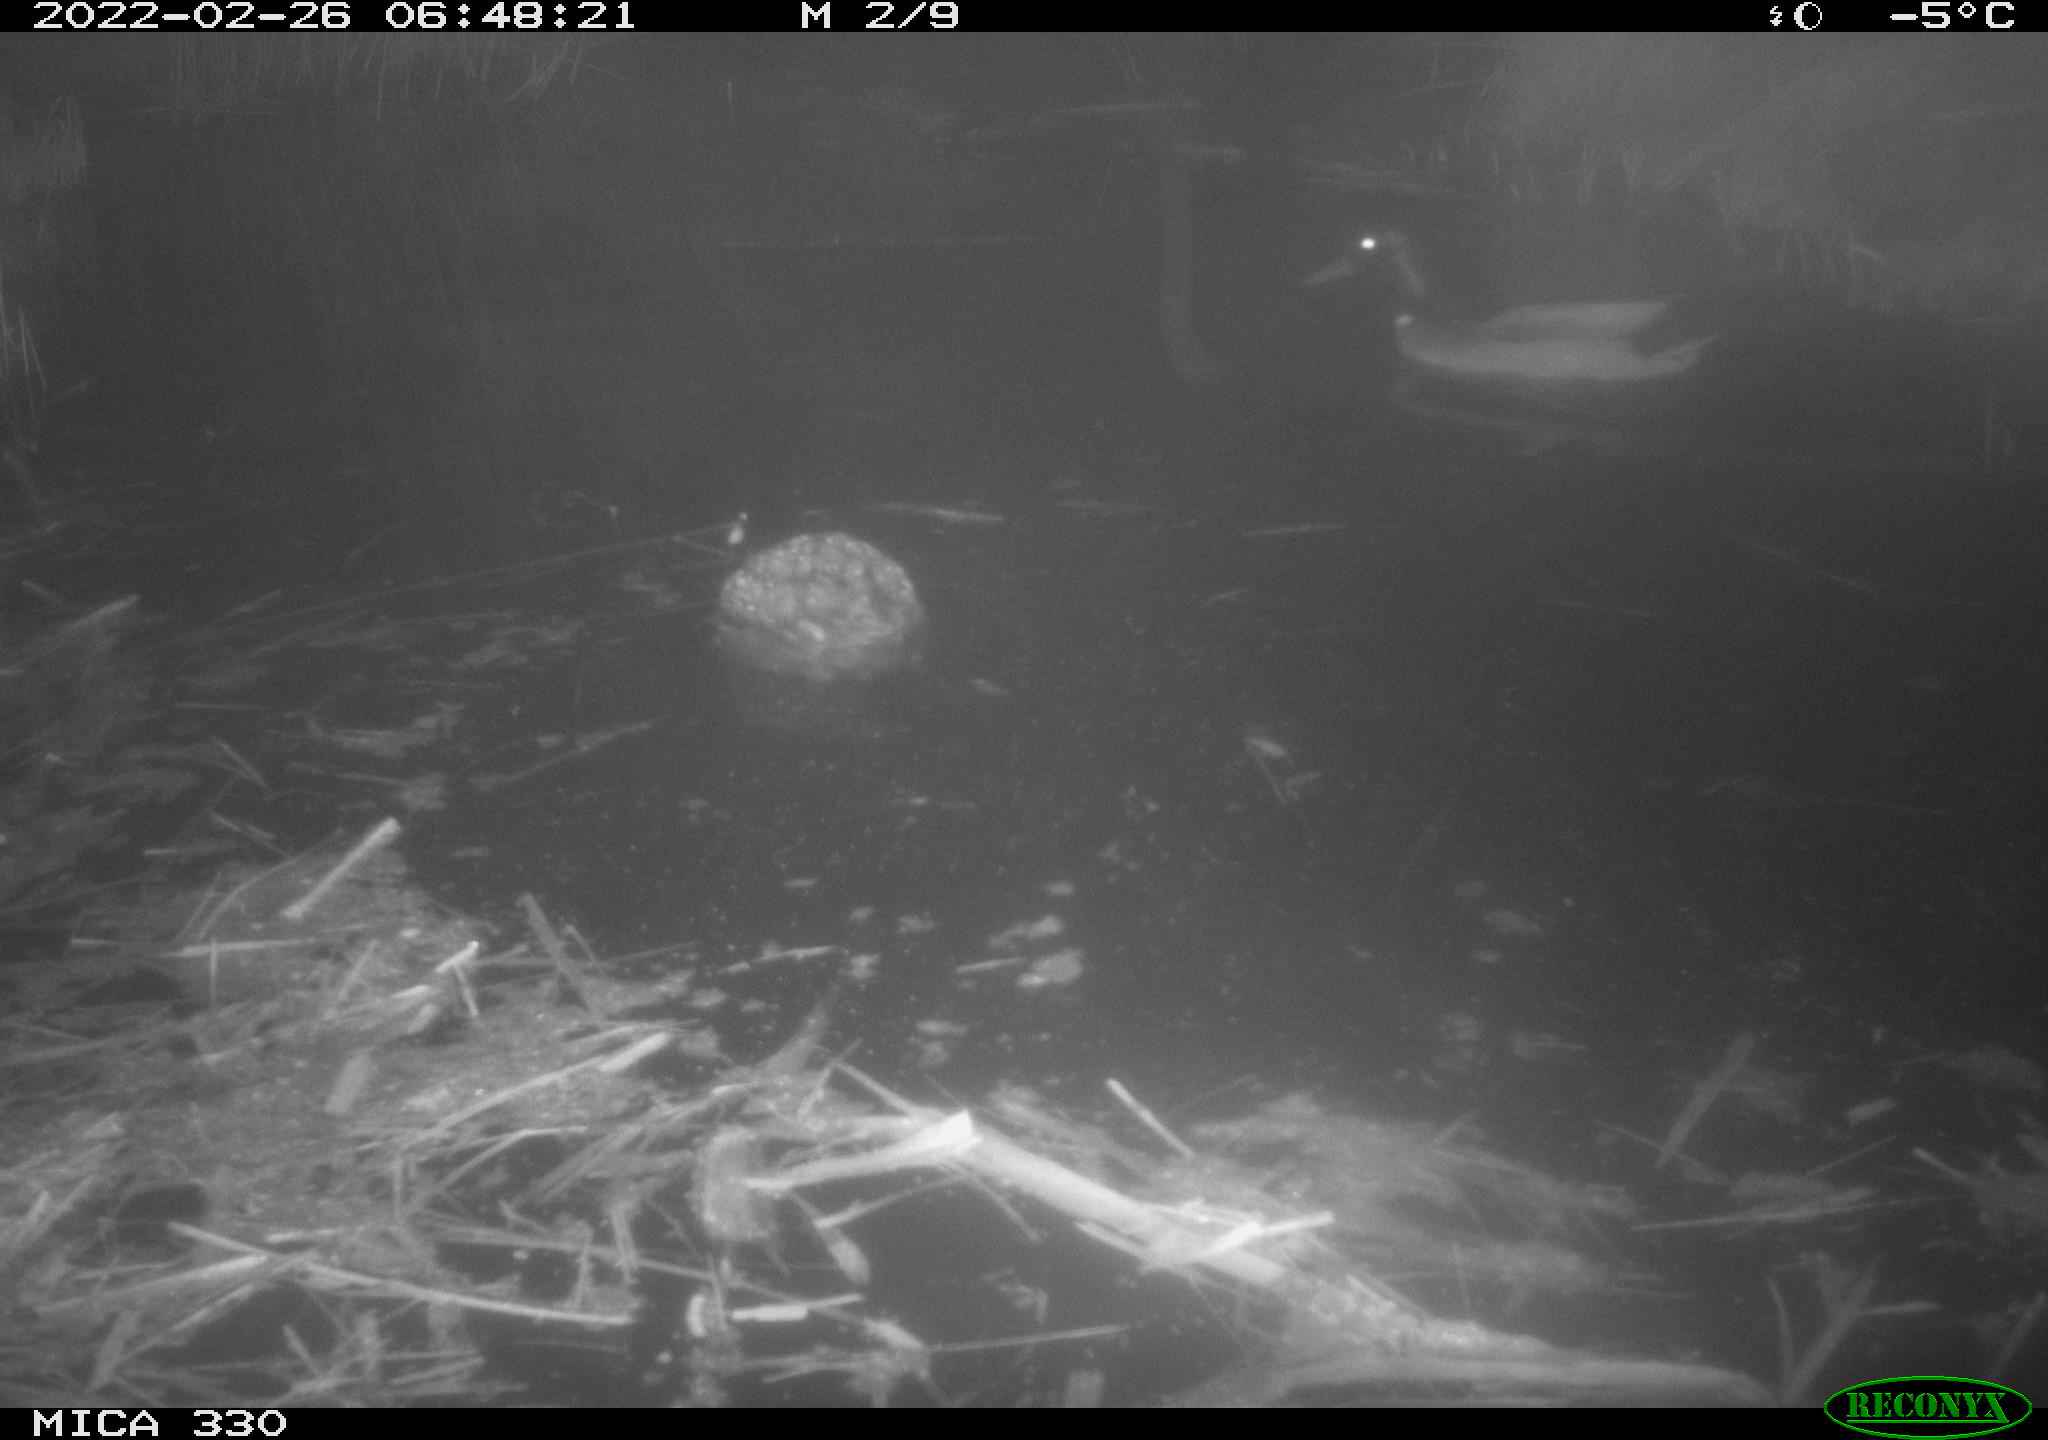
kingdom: Animalia
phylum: Chordata
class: Aves
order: Anseriformes
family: Anatidae
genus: Anas
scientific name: Anas platyrhynchos
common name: Mallard
